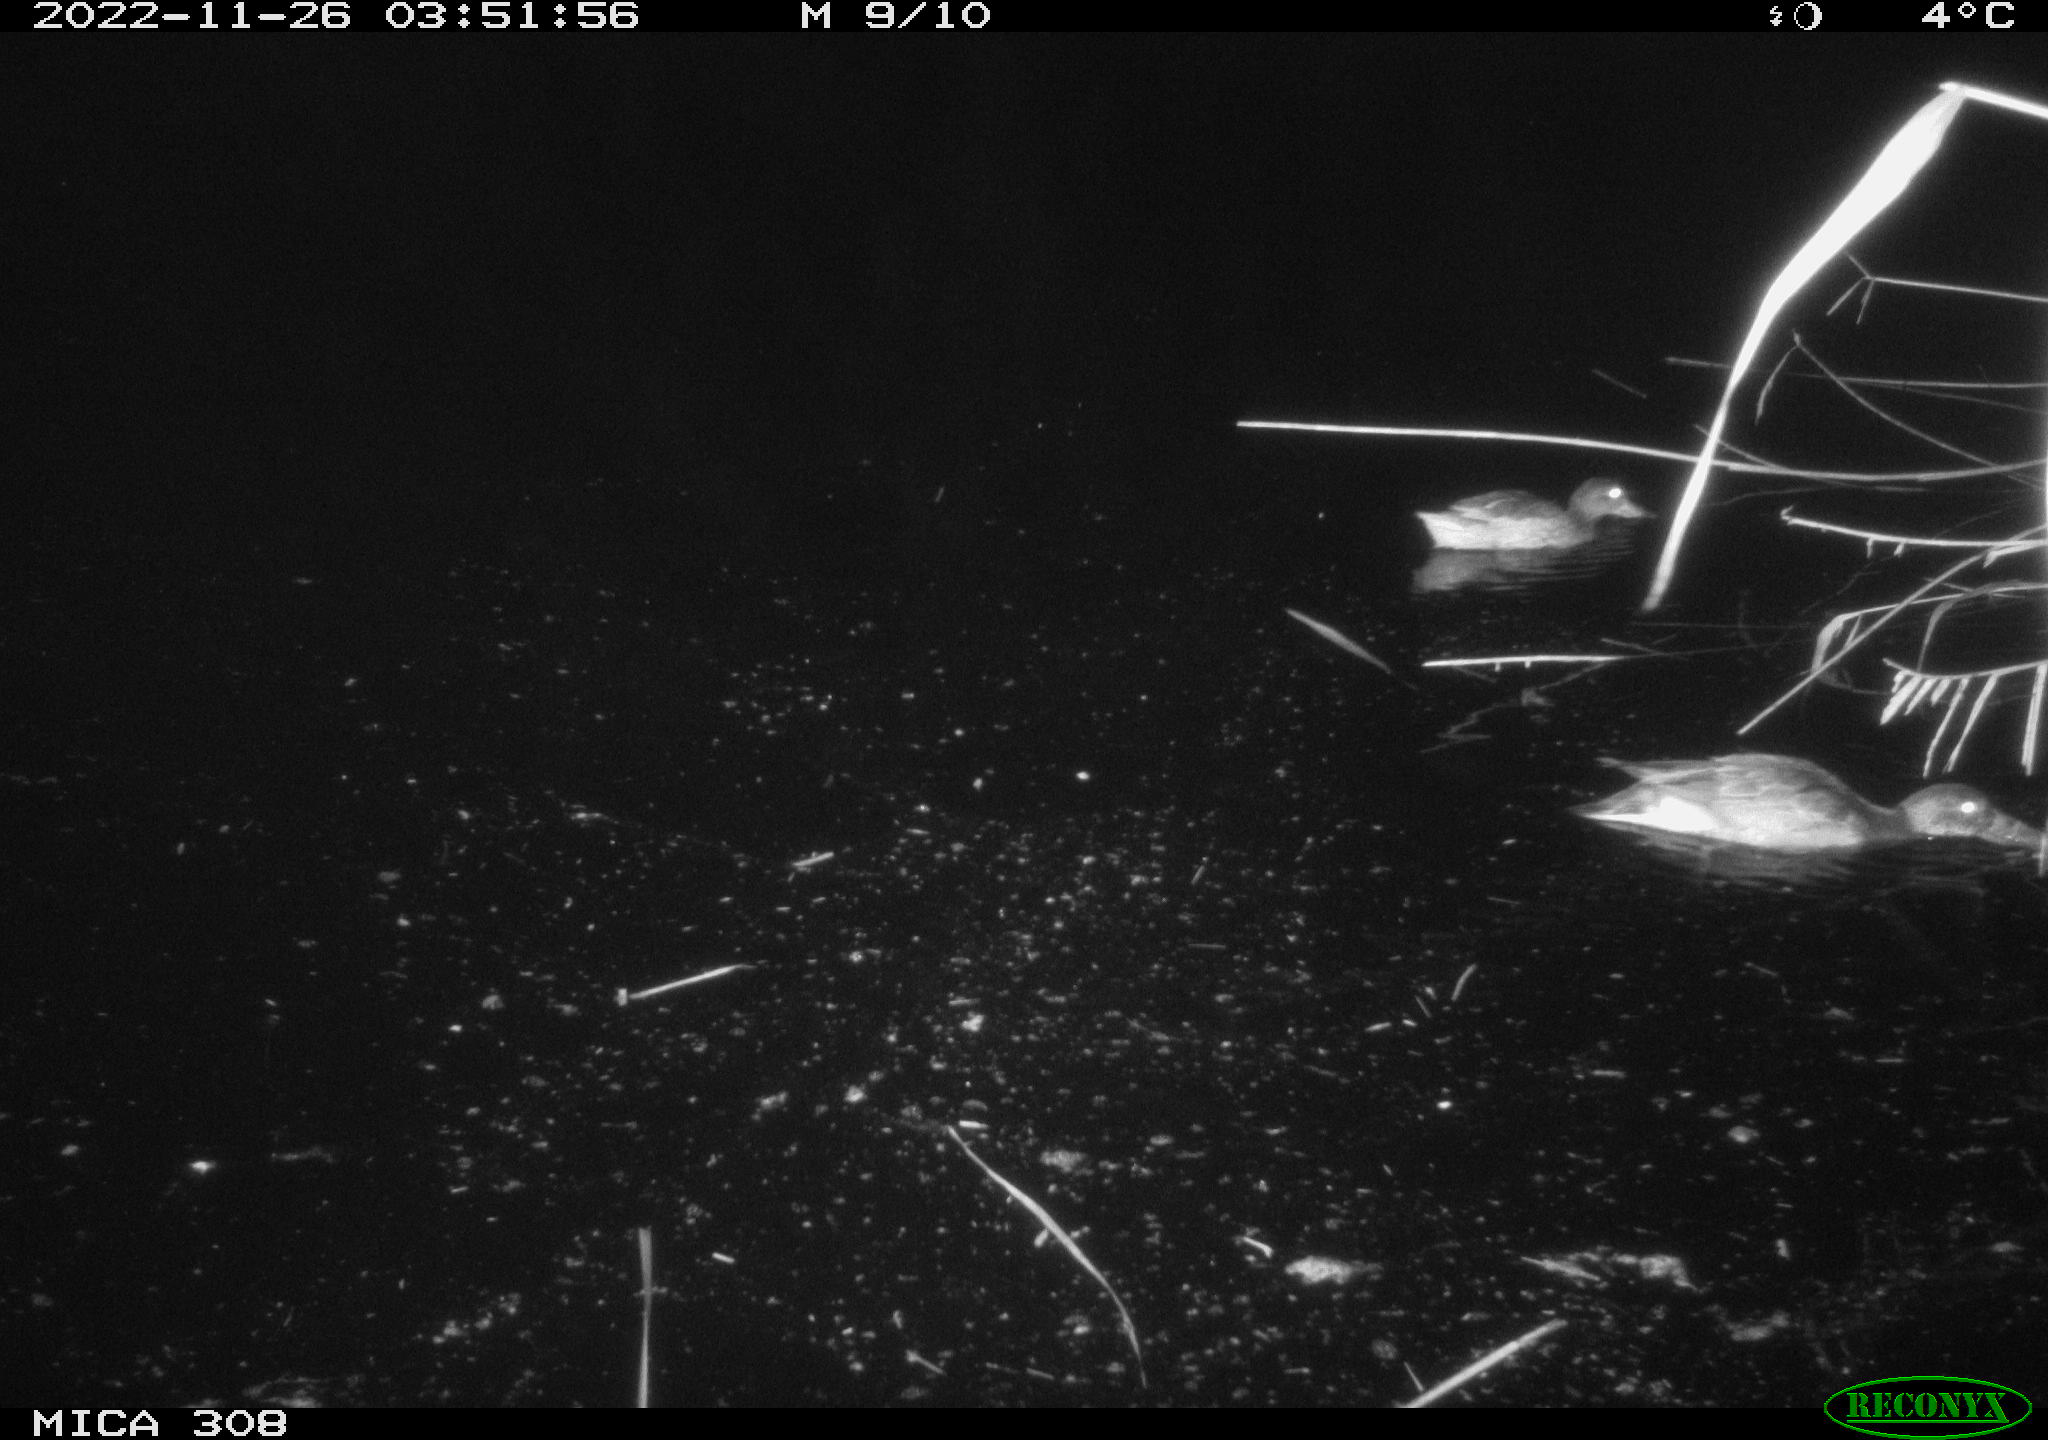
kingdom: Animalia
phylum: Chordata
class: Aves
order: Anseriformes
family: Anatidae
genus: Anas
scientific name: Anas
